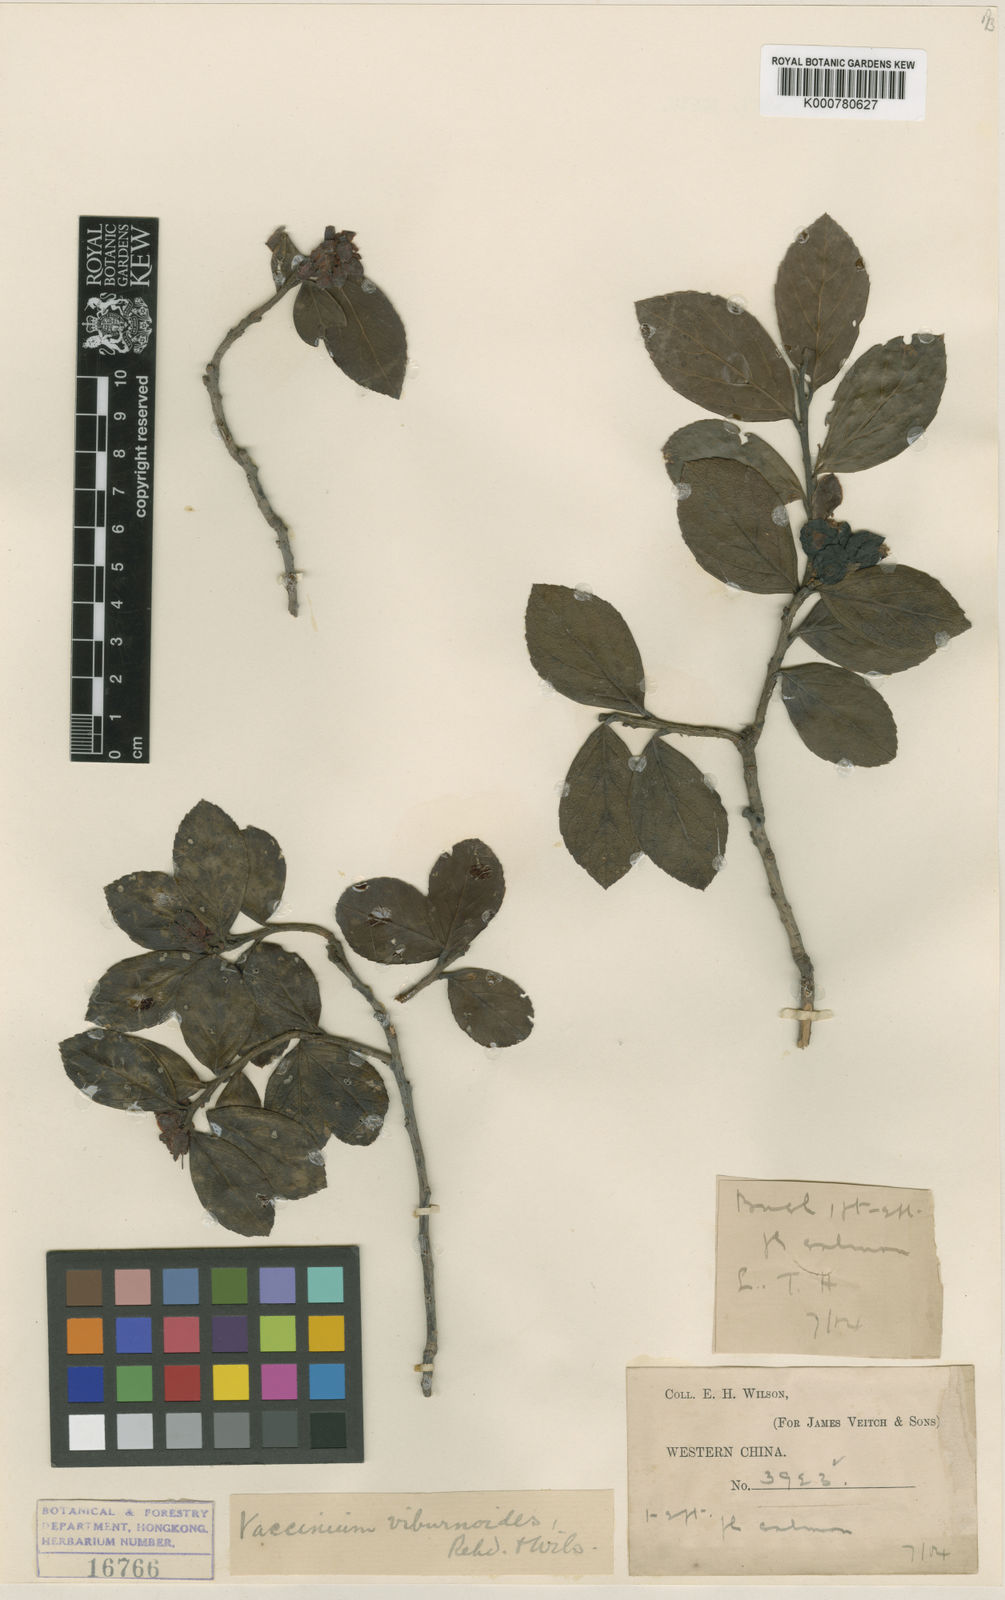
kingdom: Plantae
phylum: Tracheophyta
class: Magnoliopsida
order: Ericales
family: Ericaceae
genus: Vaccinium
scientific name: Vaccinium sikkimense
